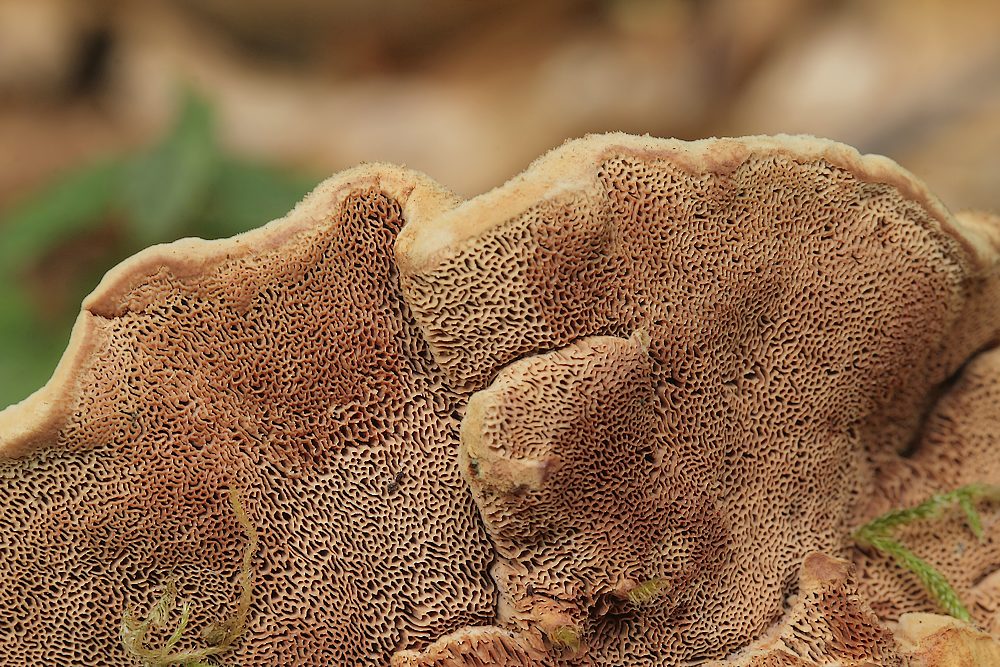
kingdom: Fungi
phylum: Basidiomycota
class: Agaricomycetes
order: Polyporales
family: Phanerochaetaceae
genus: Hapalopilus
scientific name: Hapalopilus rutilans
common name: rødlig okkerporesvamp
